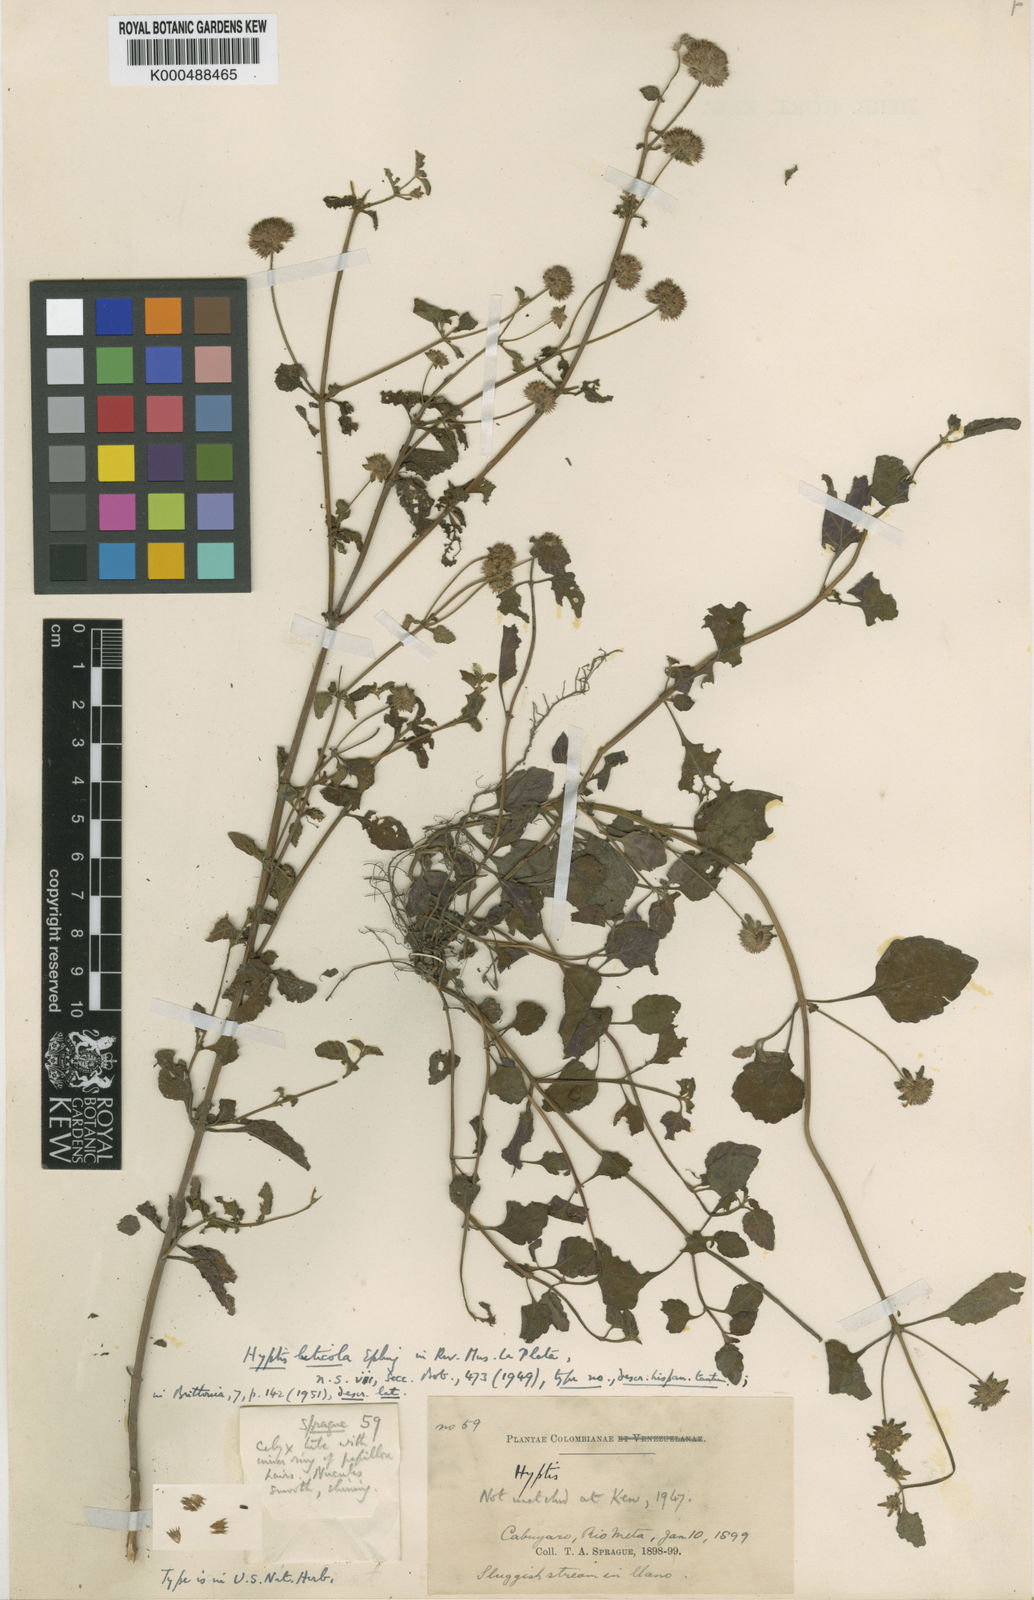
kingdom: Plantae
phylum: Tracheophyta
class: Magnoliopsida
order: Lamiales
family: Lamiaceae
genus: Hyptis
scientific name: Hyptis luticola
